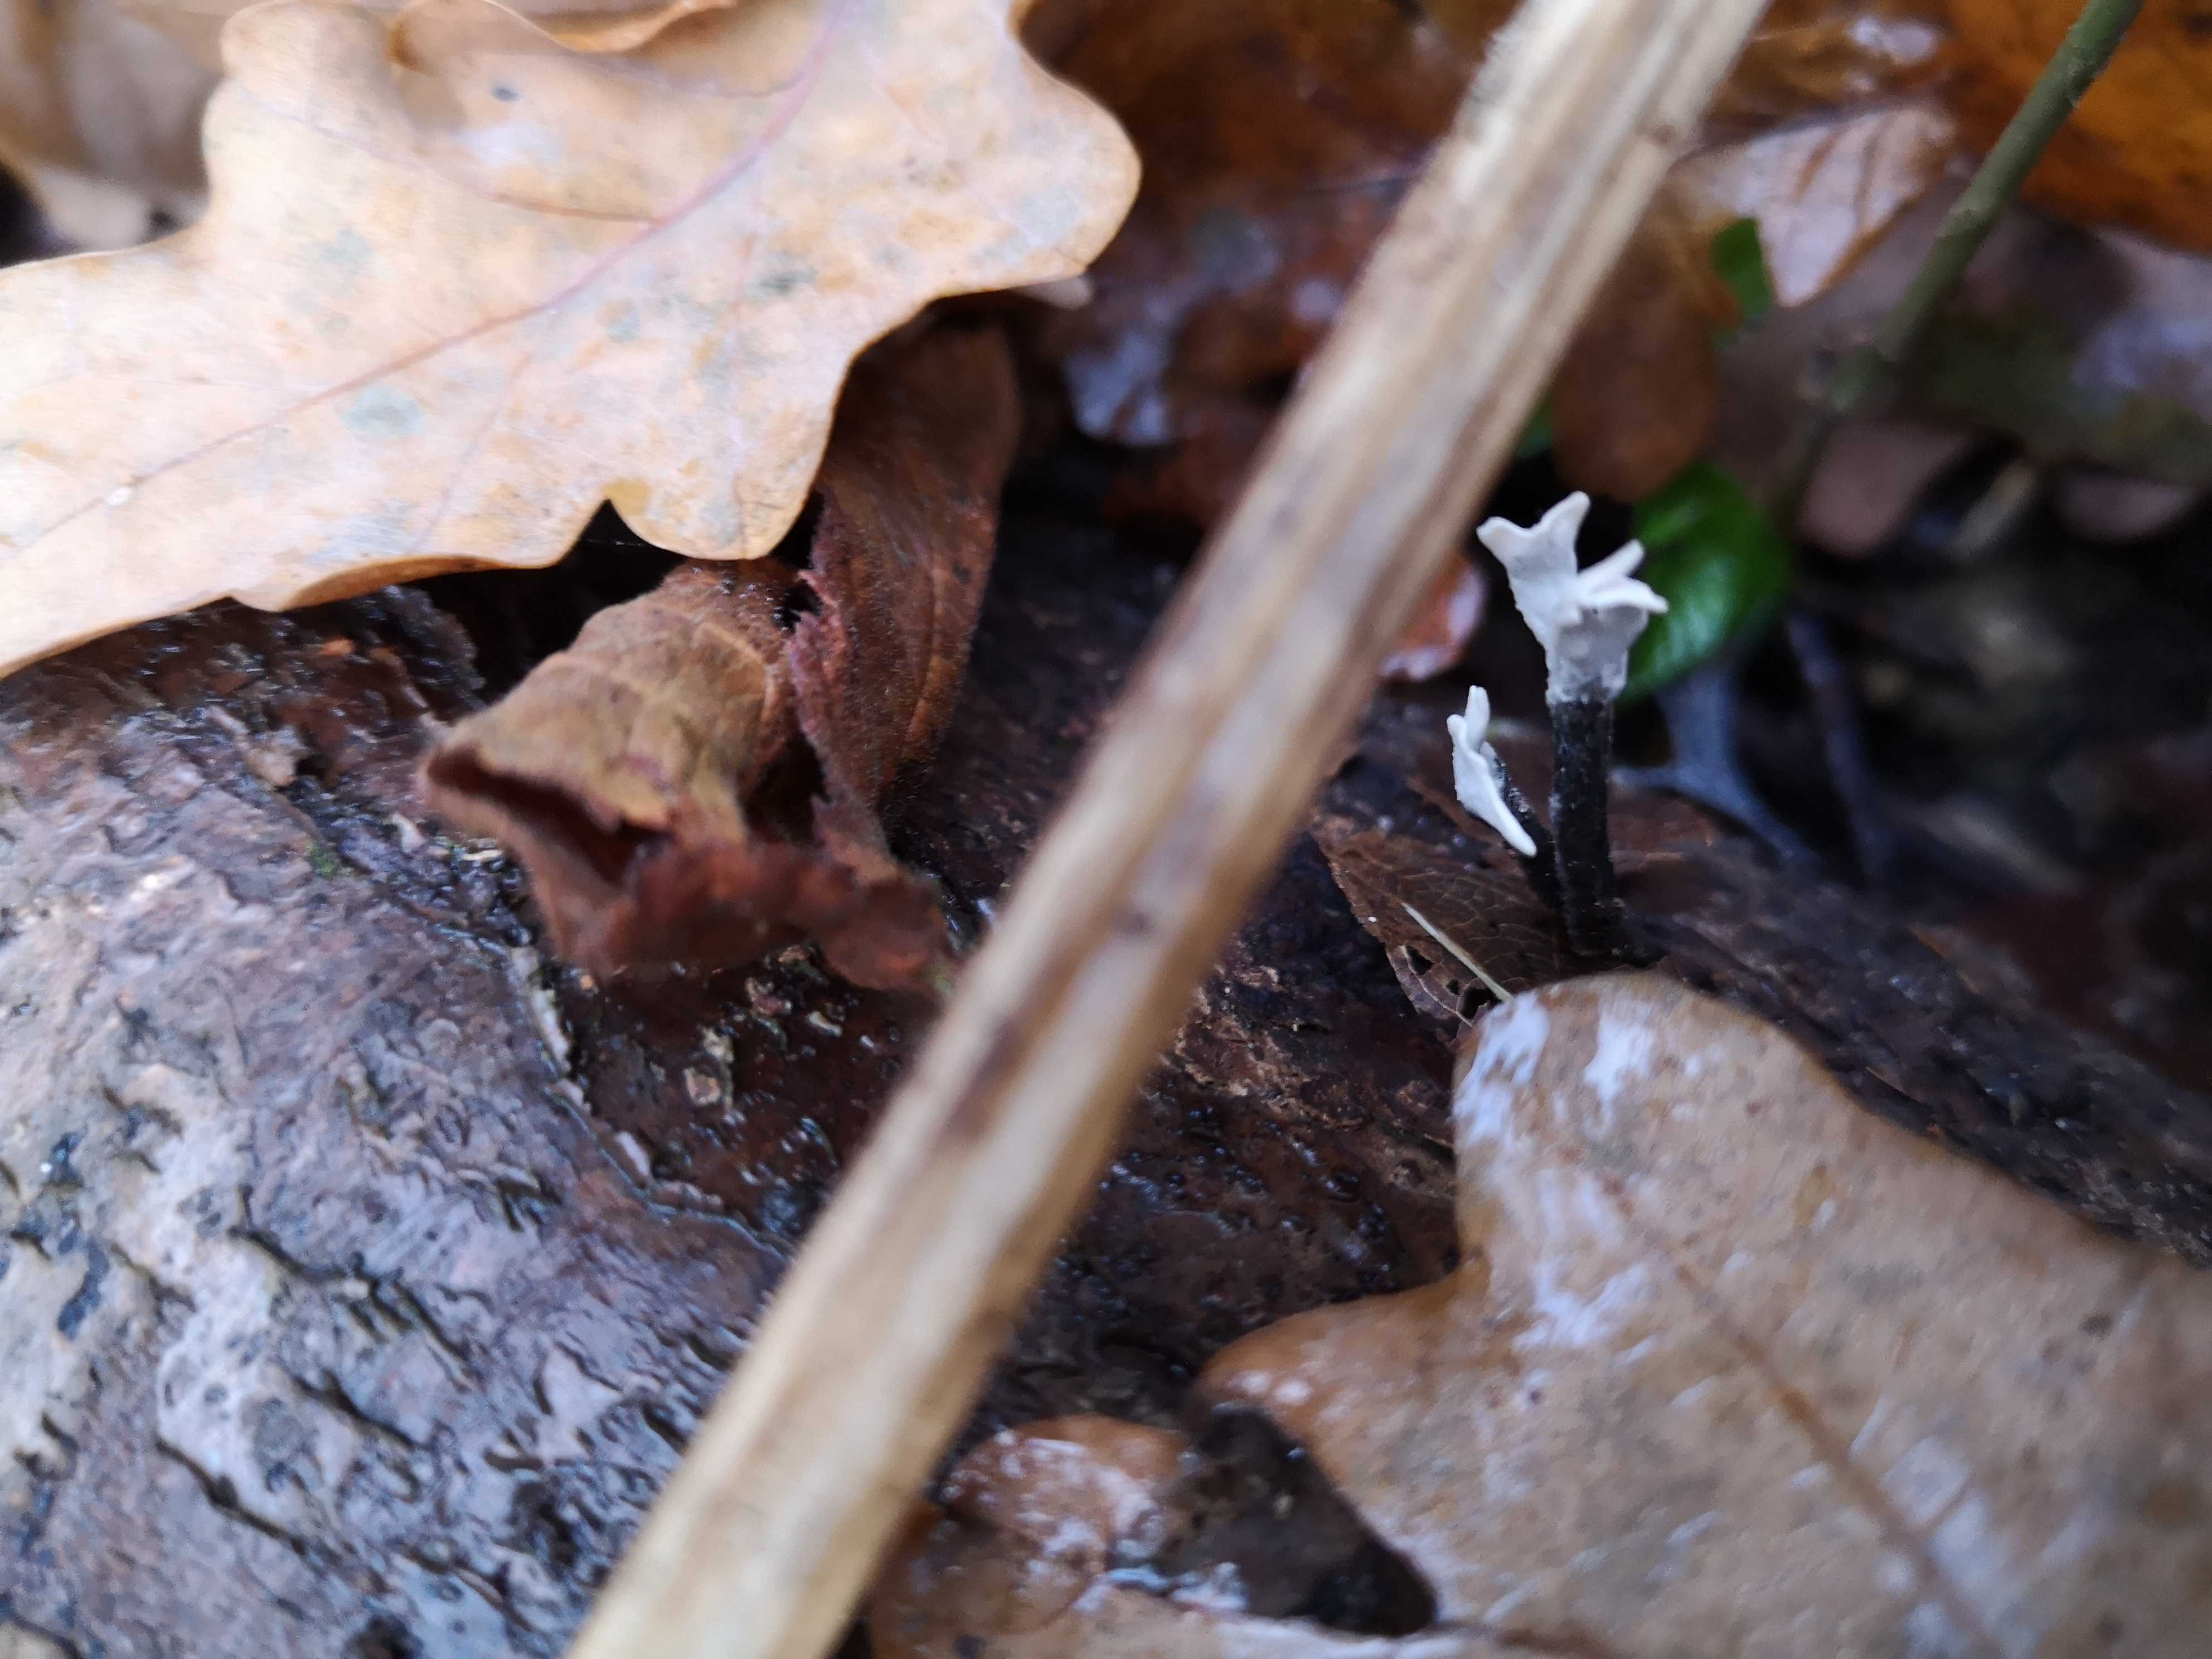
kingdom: Fungi
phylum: Ascomycota
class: Sordariomycetes
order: Xylariales
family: Xylariaceae
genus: Xylaria
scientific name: Xylaria hypoxylon
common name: grenet stødsvamp
